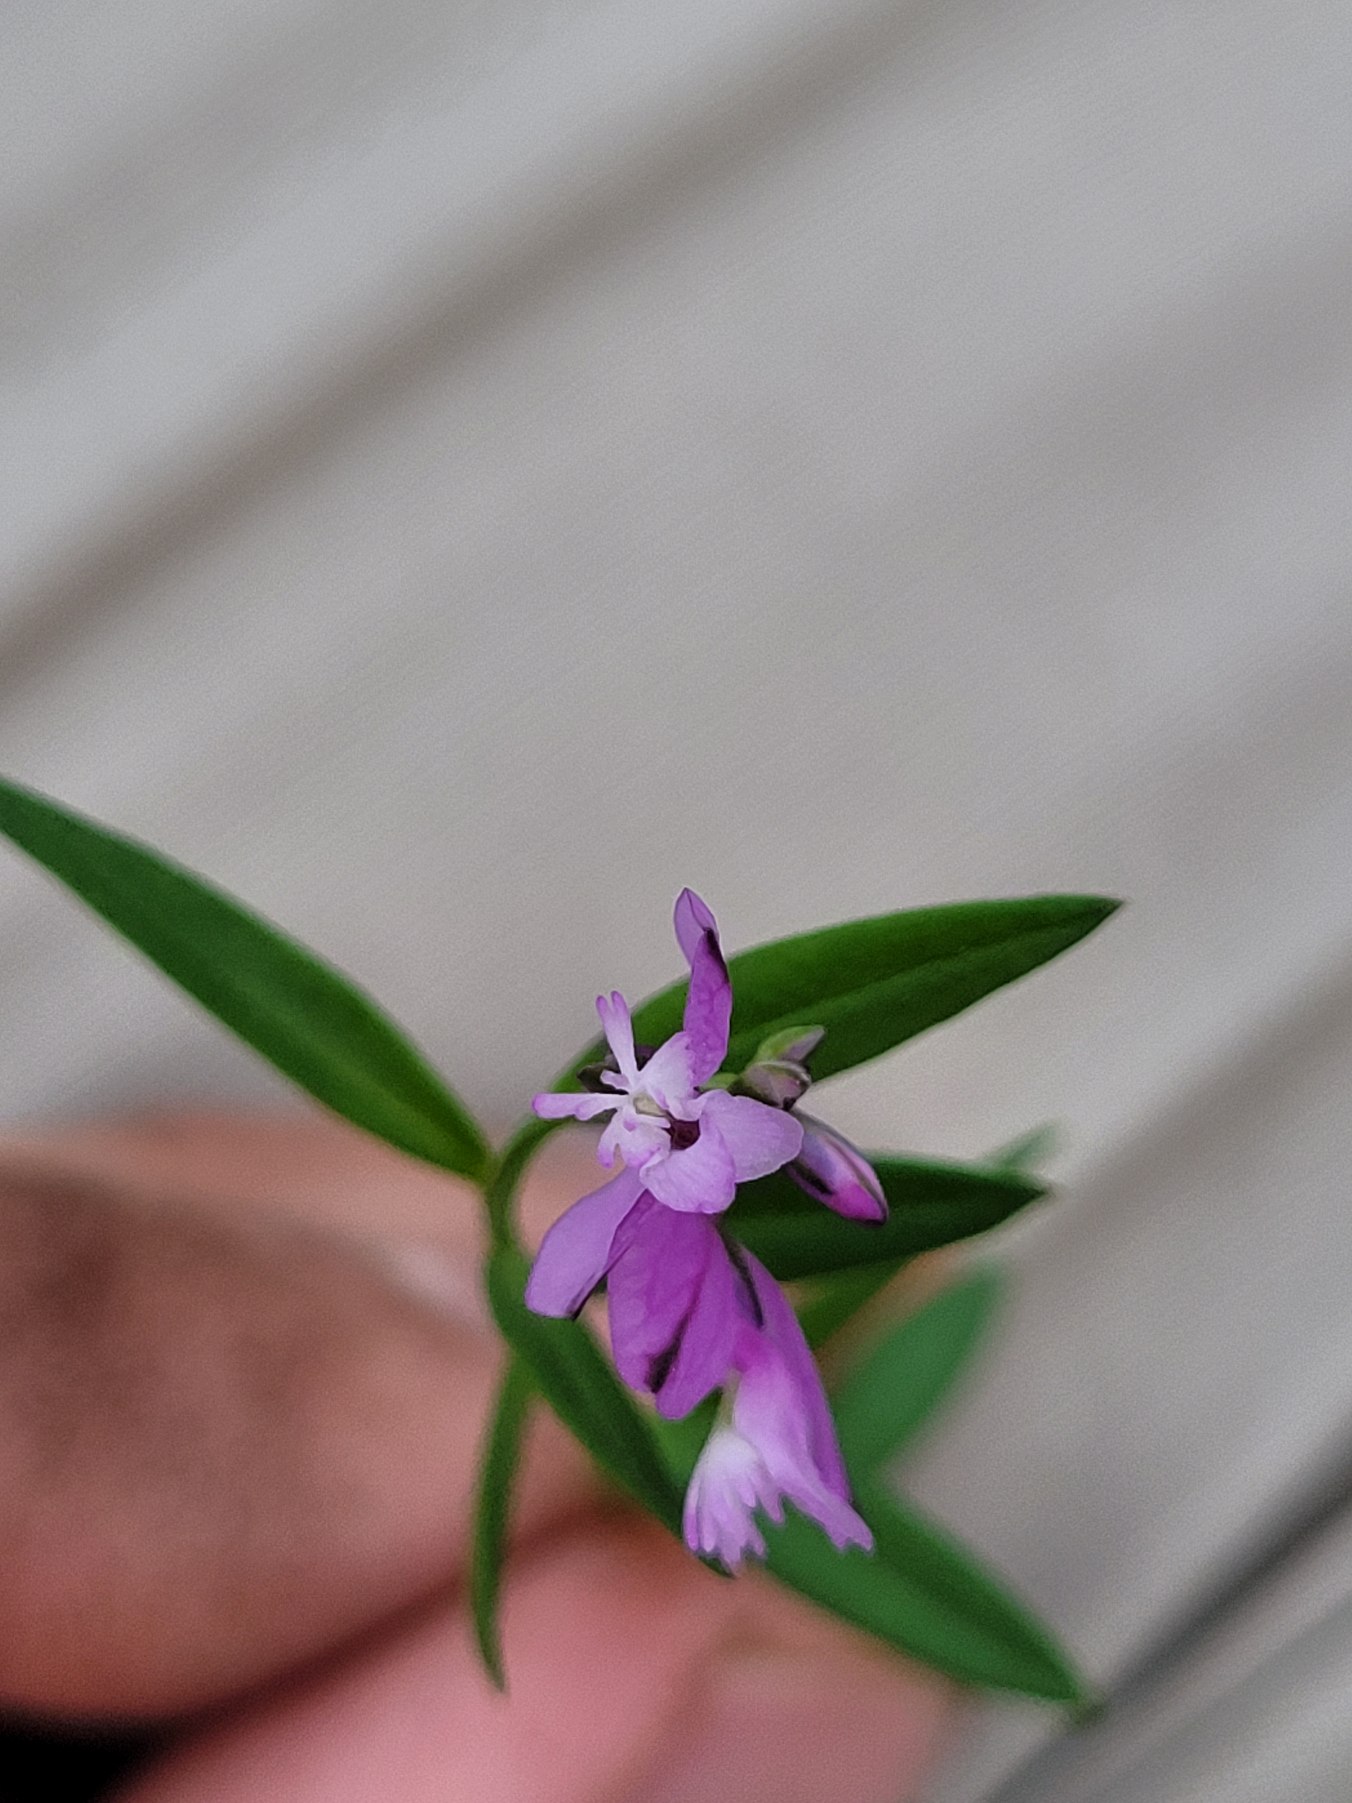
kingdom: Plantae
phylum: Tracheophyta
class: Magnoliopsida
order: Fabales
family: Polygalaceae
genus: Polygala
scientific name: Polygala vulgaris
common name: Almindelig mælkeurt
